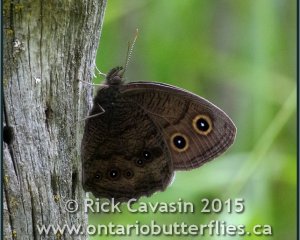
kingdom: Animalia
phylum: Arthropoda
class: Insecta
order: Lepidoptera
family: Nymphalidae
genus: Cercyonis
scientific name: Cercyonis pegala
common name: Common Wood-Nymph
